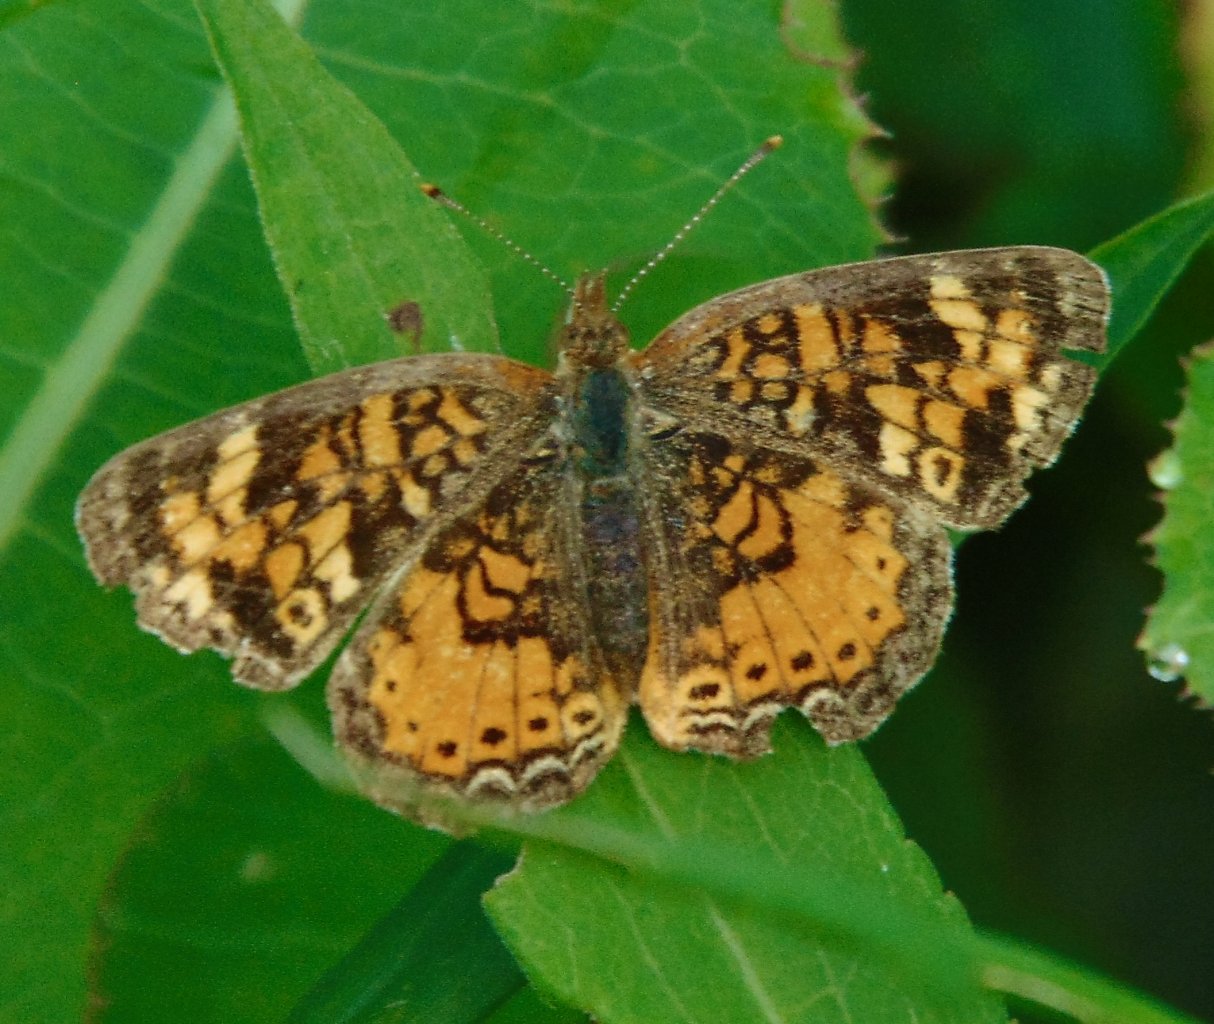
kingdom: Animalia
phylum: Arthropoda
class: Insecta
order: Lepidoptera
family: Nymphalidae
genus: Phyciodes
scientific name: Phyciodes tharos
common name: Pearl Crescent
